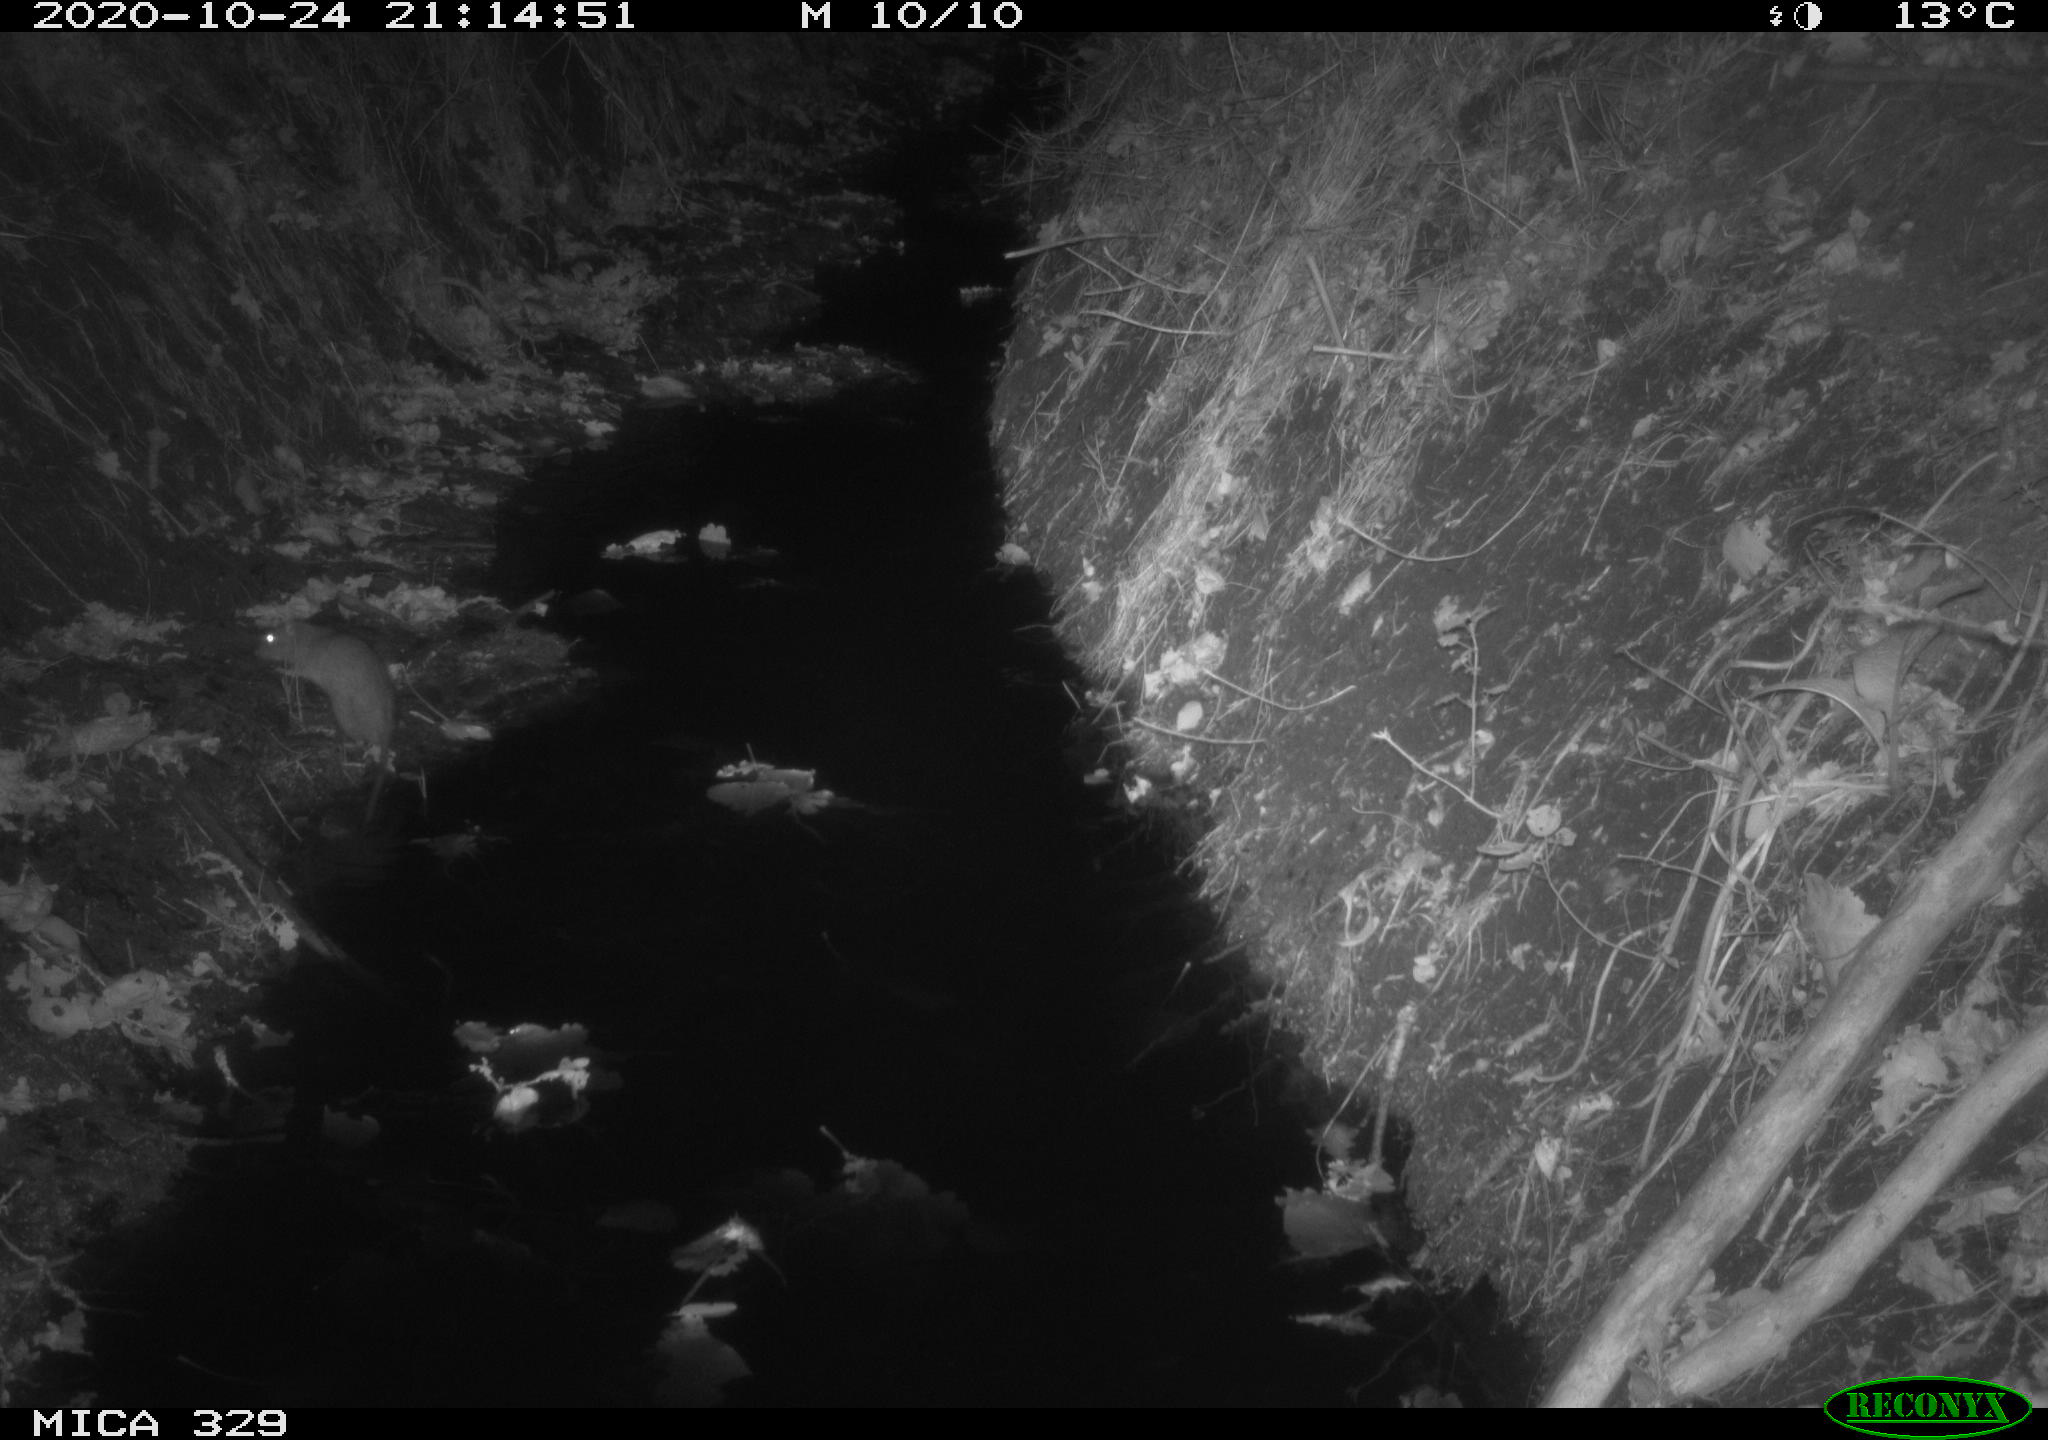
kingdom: Animalia
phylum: Chordata
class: Mammalia
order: Rodentia
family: Muridae
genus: Rattus
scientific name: Rattus norvegicus
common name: Brown rat
